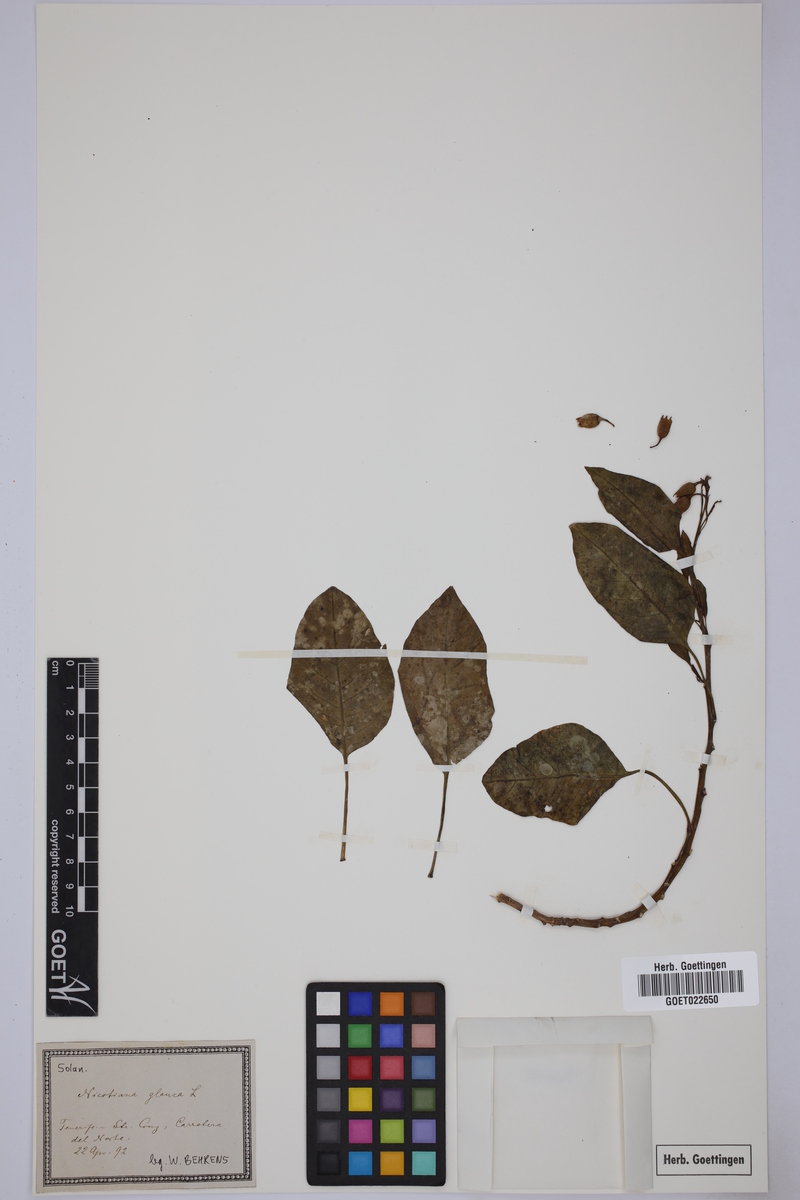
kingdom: Plantae
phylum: Tracheophyta
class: Magnoliopsida
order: Solanales
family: Solanaceae
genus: Nicotiana
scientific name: Nicotiana glauca
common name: Tree tobacco
